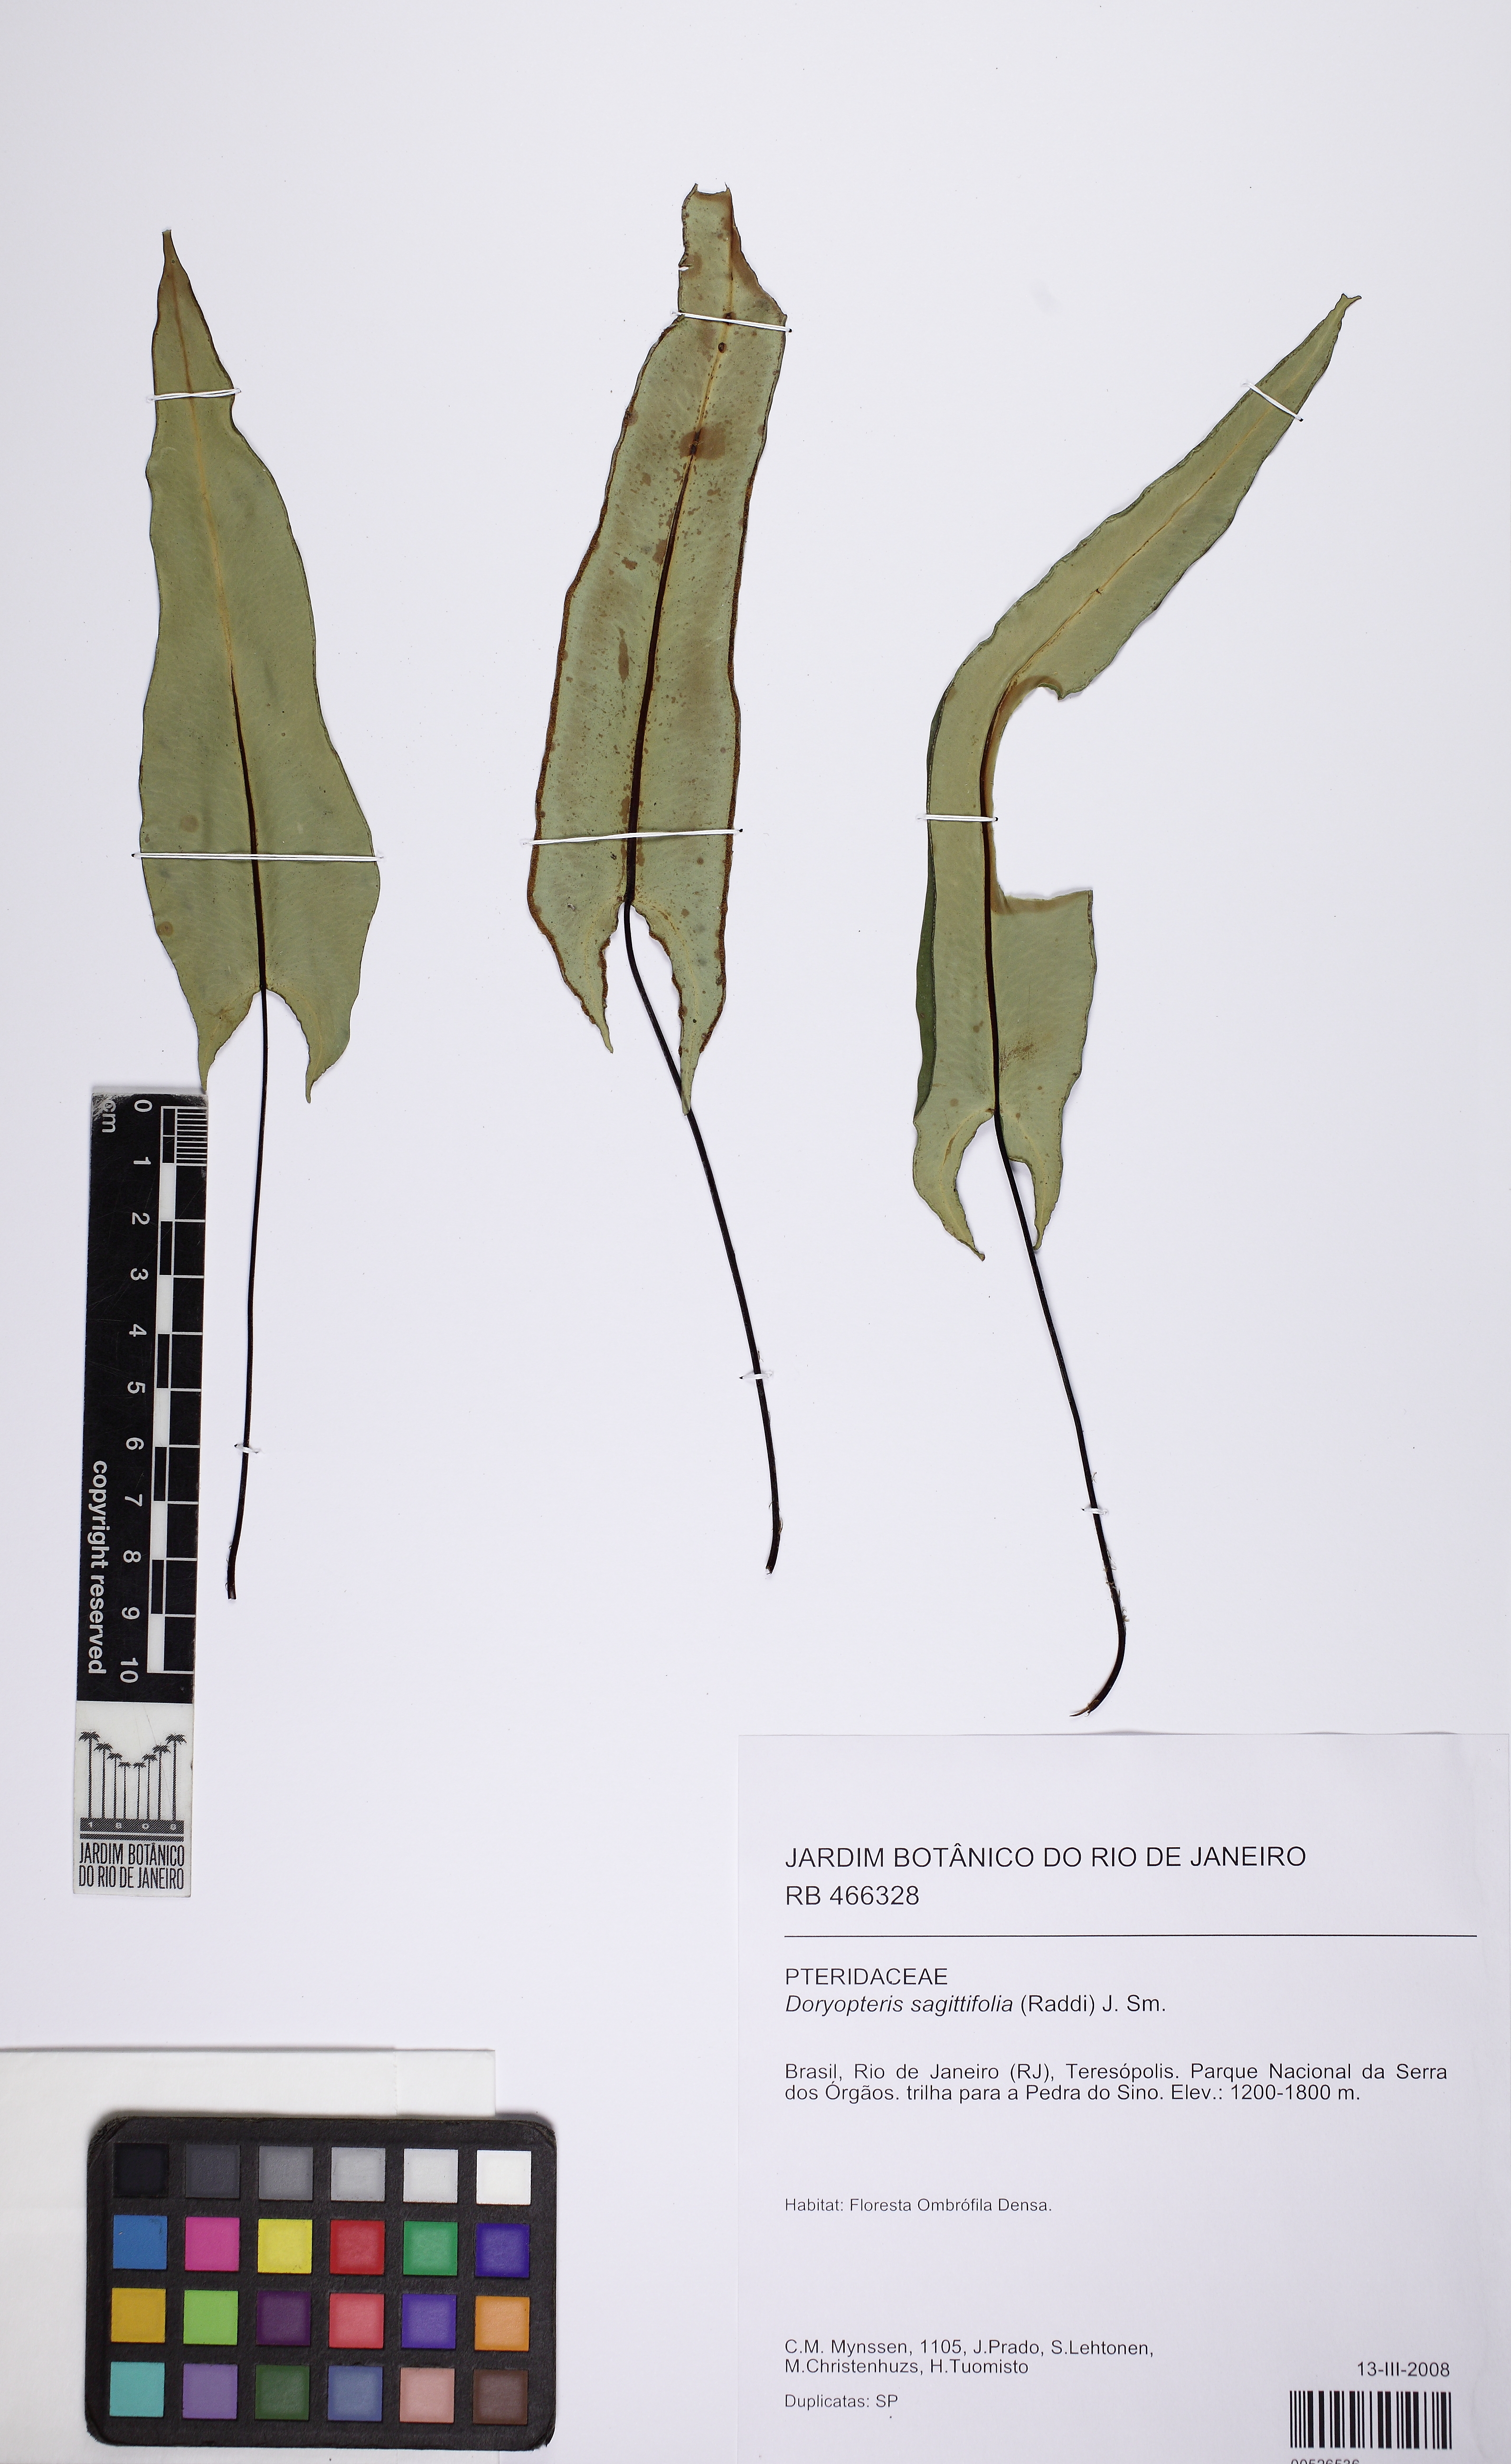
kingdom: Plantae
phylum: Tracheophyta
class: Polypodiopsida
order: Polypodiales
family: Pteridaceae
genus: Doryopteris
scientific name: Doryopteris sagittifolia
